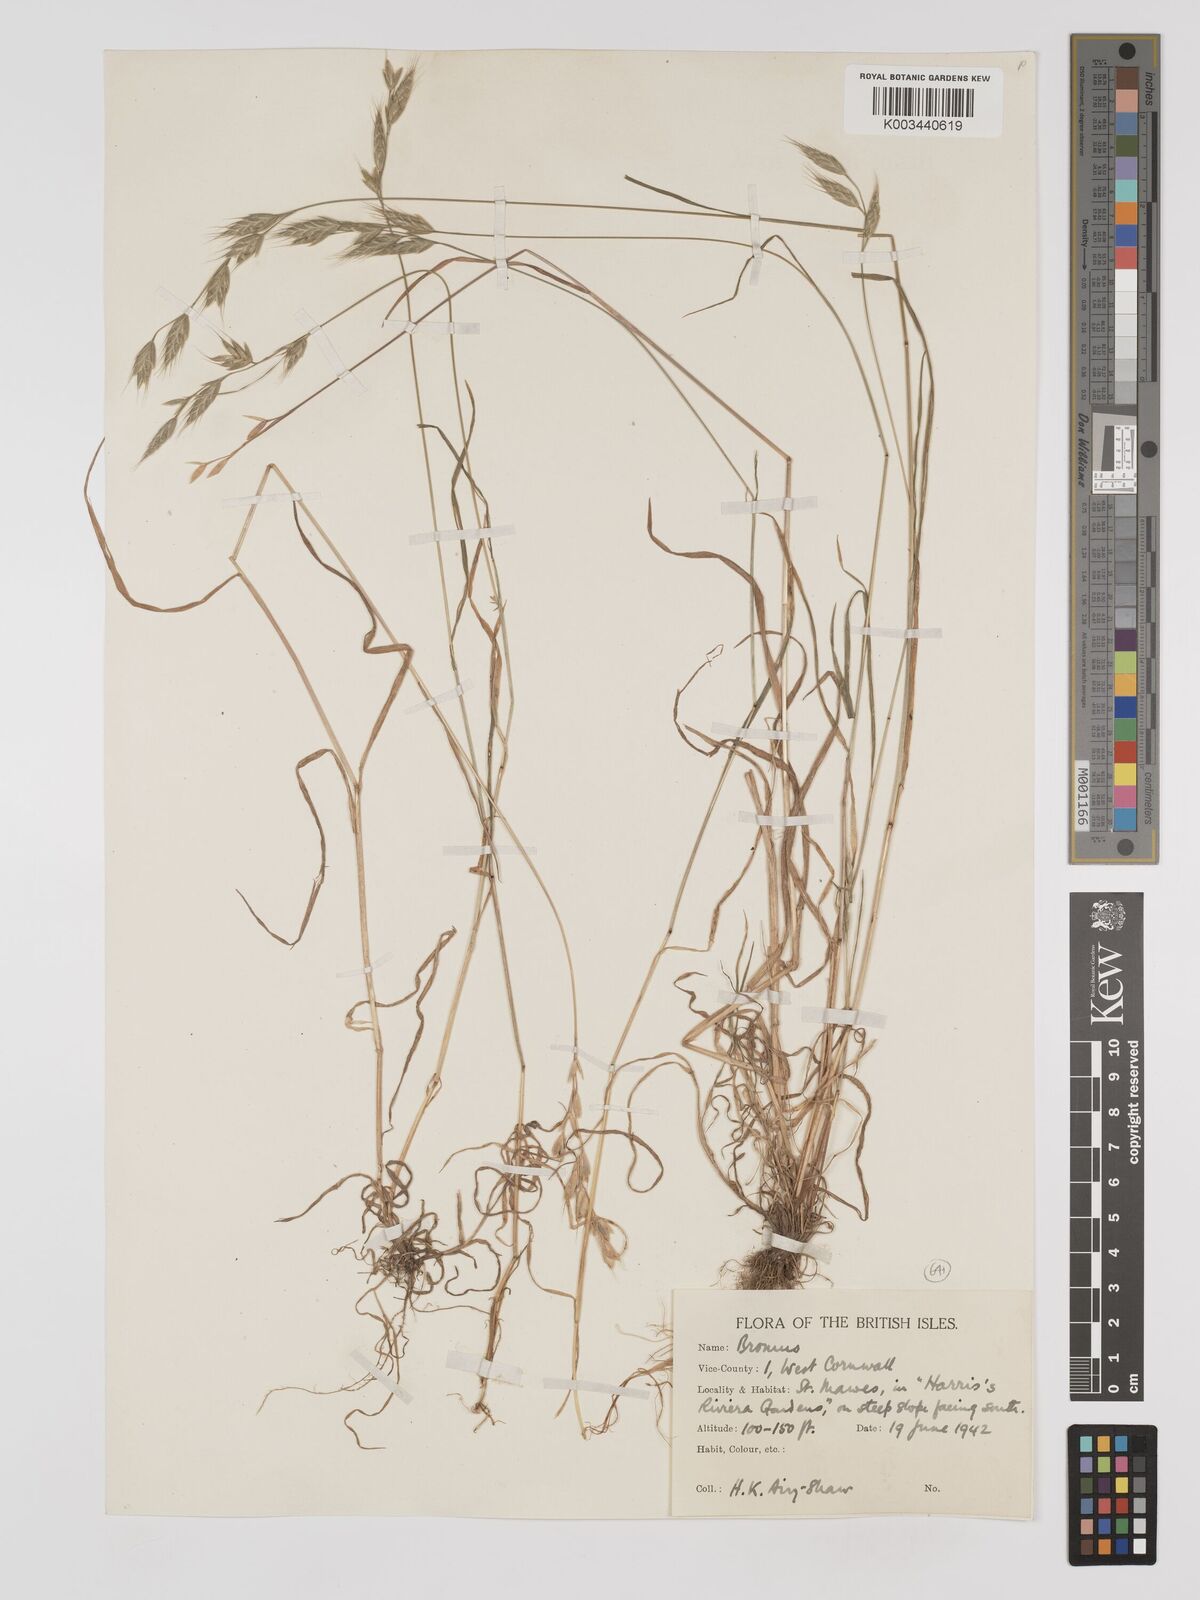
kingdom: Plantae
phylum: Tracheophyta
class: Liliopsida
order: Poales
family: Poaceae
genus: Bromus
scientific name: Bromus hordeaceus
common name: Soft brome
